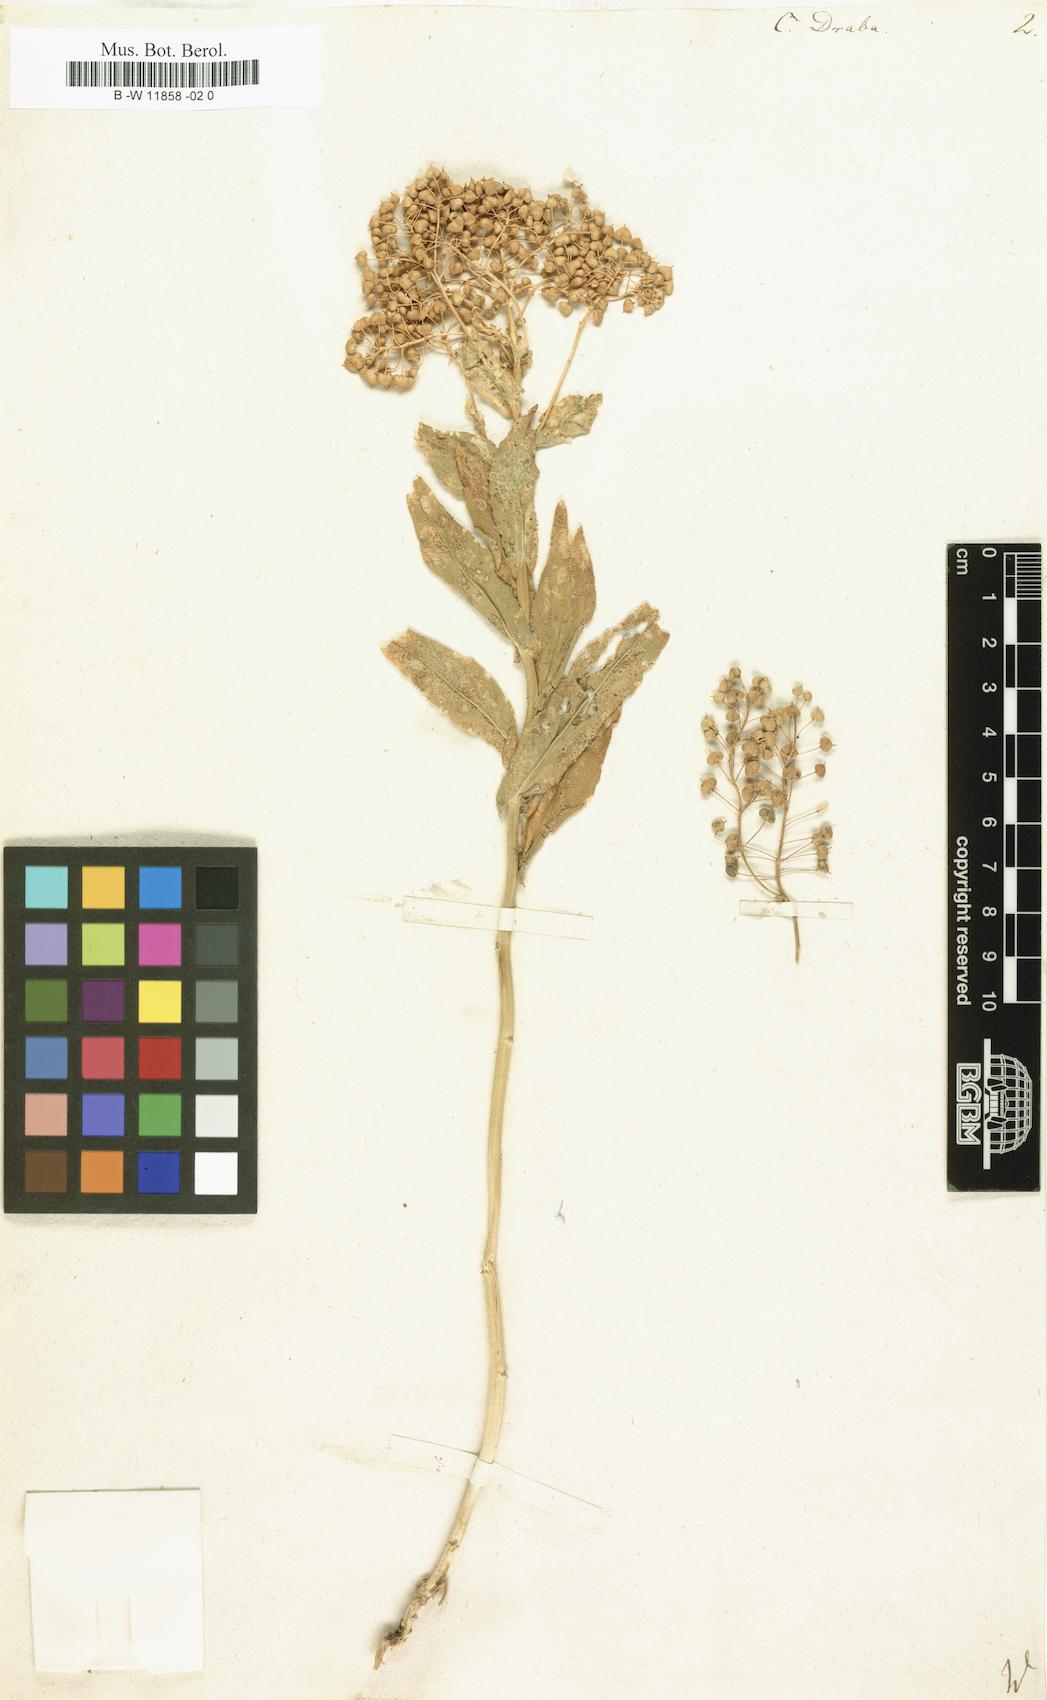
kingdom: Plantae
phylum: Tracheophyta
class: Magnoliopsida
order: Brassicales
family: Brassicaceae
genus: Lepidium
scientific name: Lepidium draba
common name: Hoary cress
